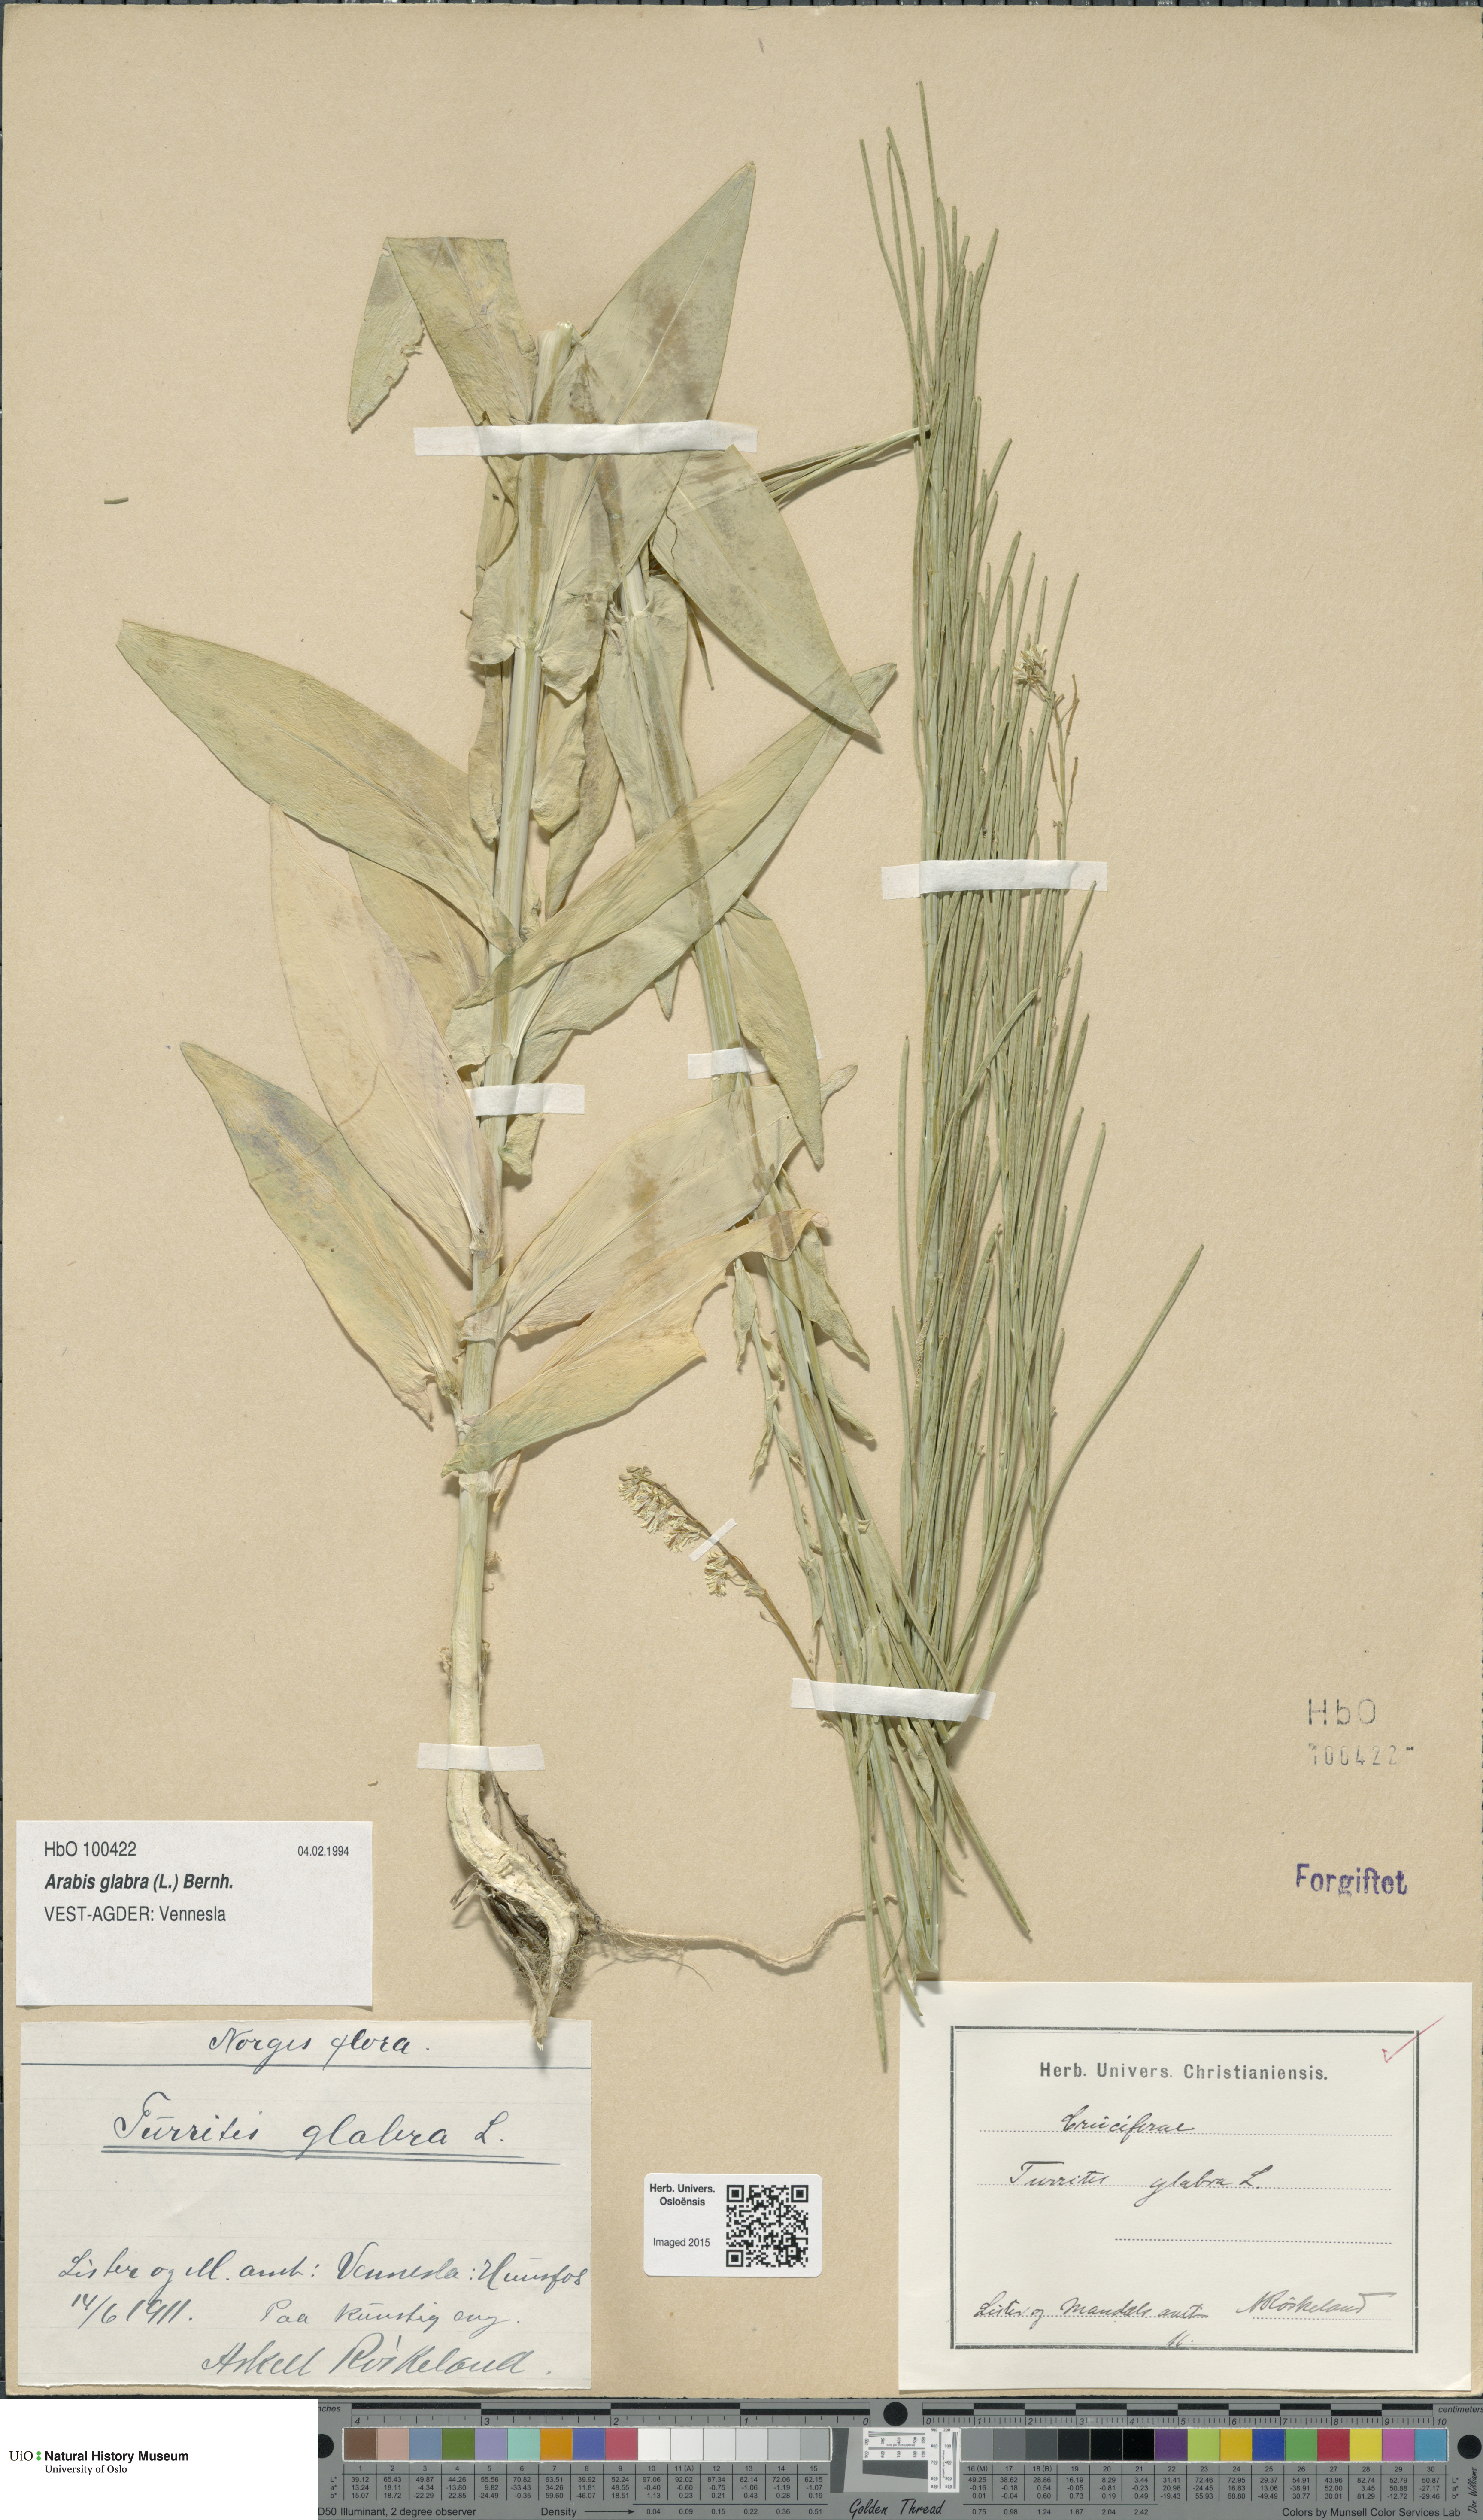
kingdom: Plantae
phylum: Tracheophyta
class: Magnoliopsida
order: Brassicales
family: Brassicaceae
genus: Turritis
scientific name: Turritis glabra
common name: Tower rockcress
